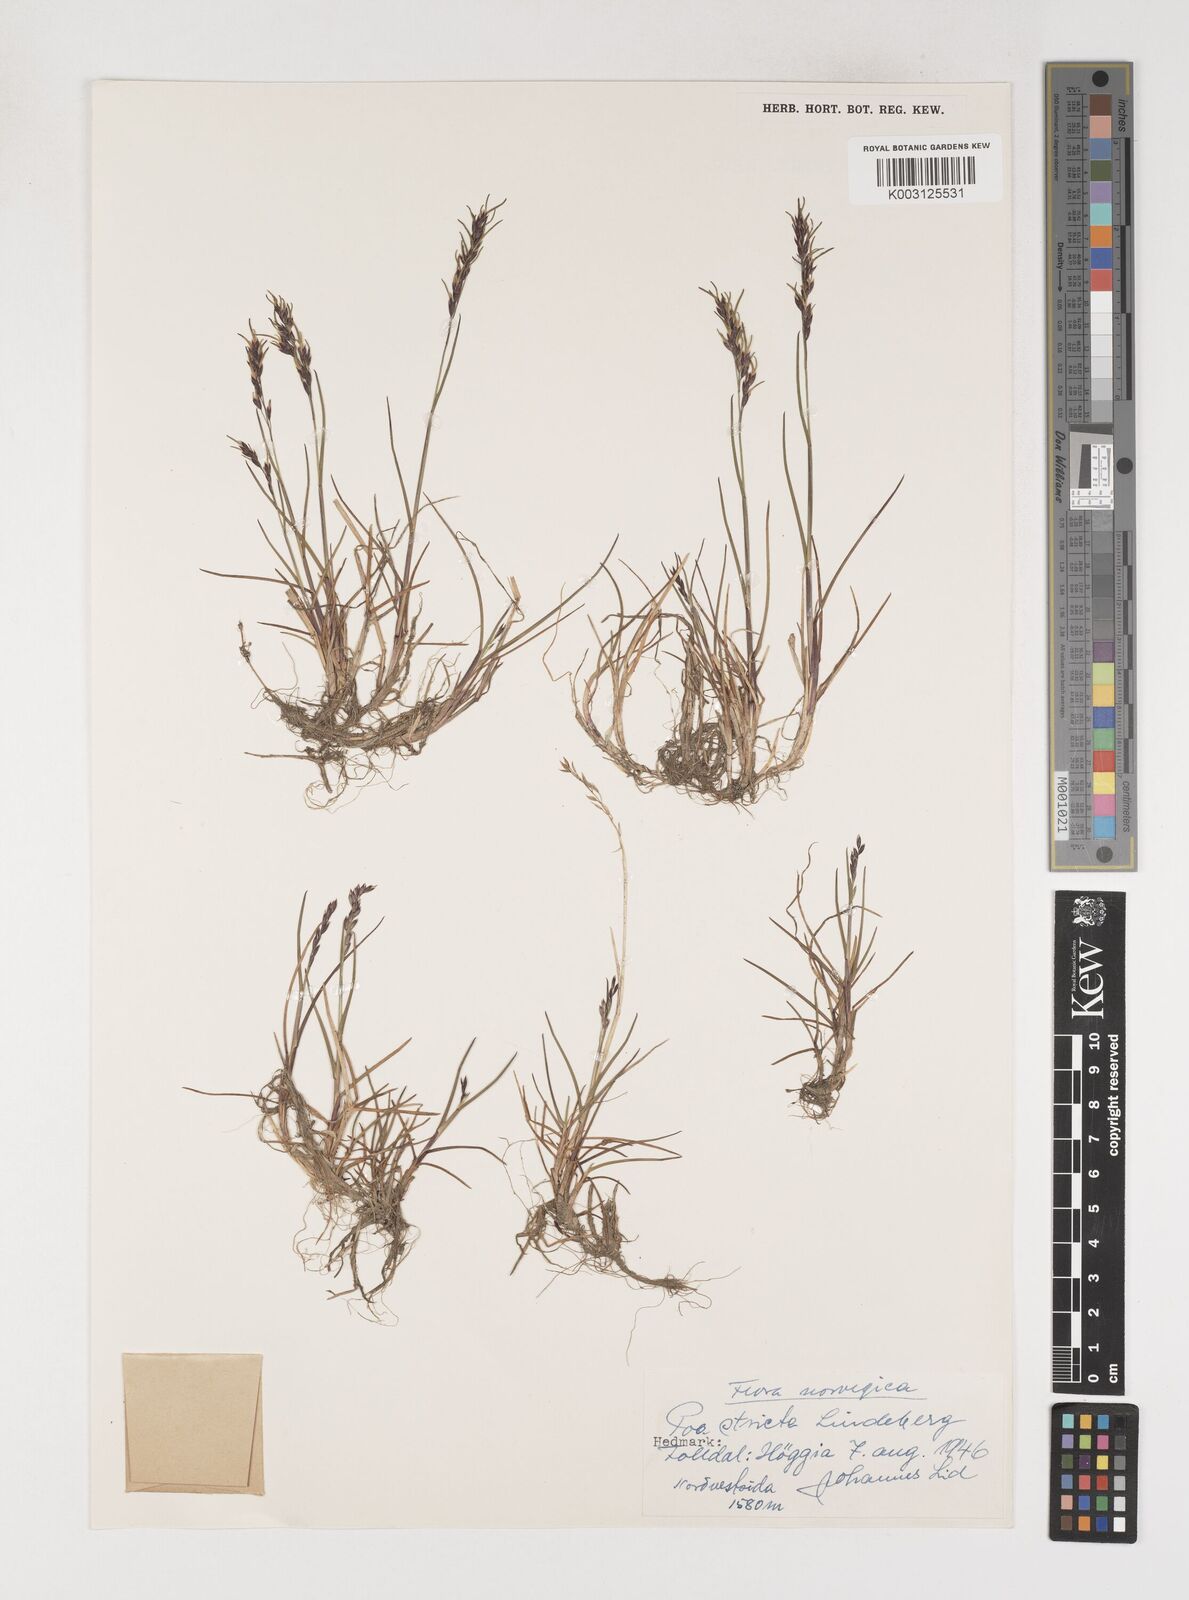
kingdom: Plantae
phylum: Tracheophyta
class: Liliopsida
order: Poales
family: Poaceae
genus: Poa
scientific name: Poa arctica
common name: Arctic bluegrass
